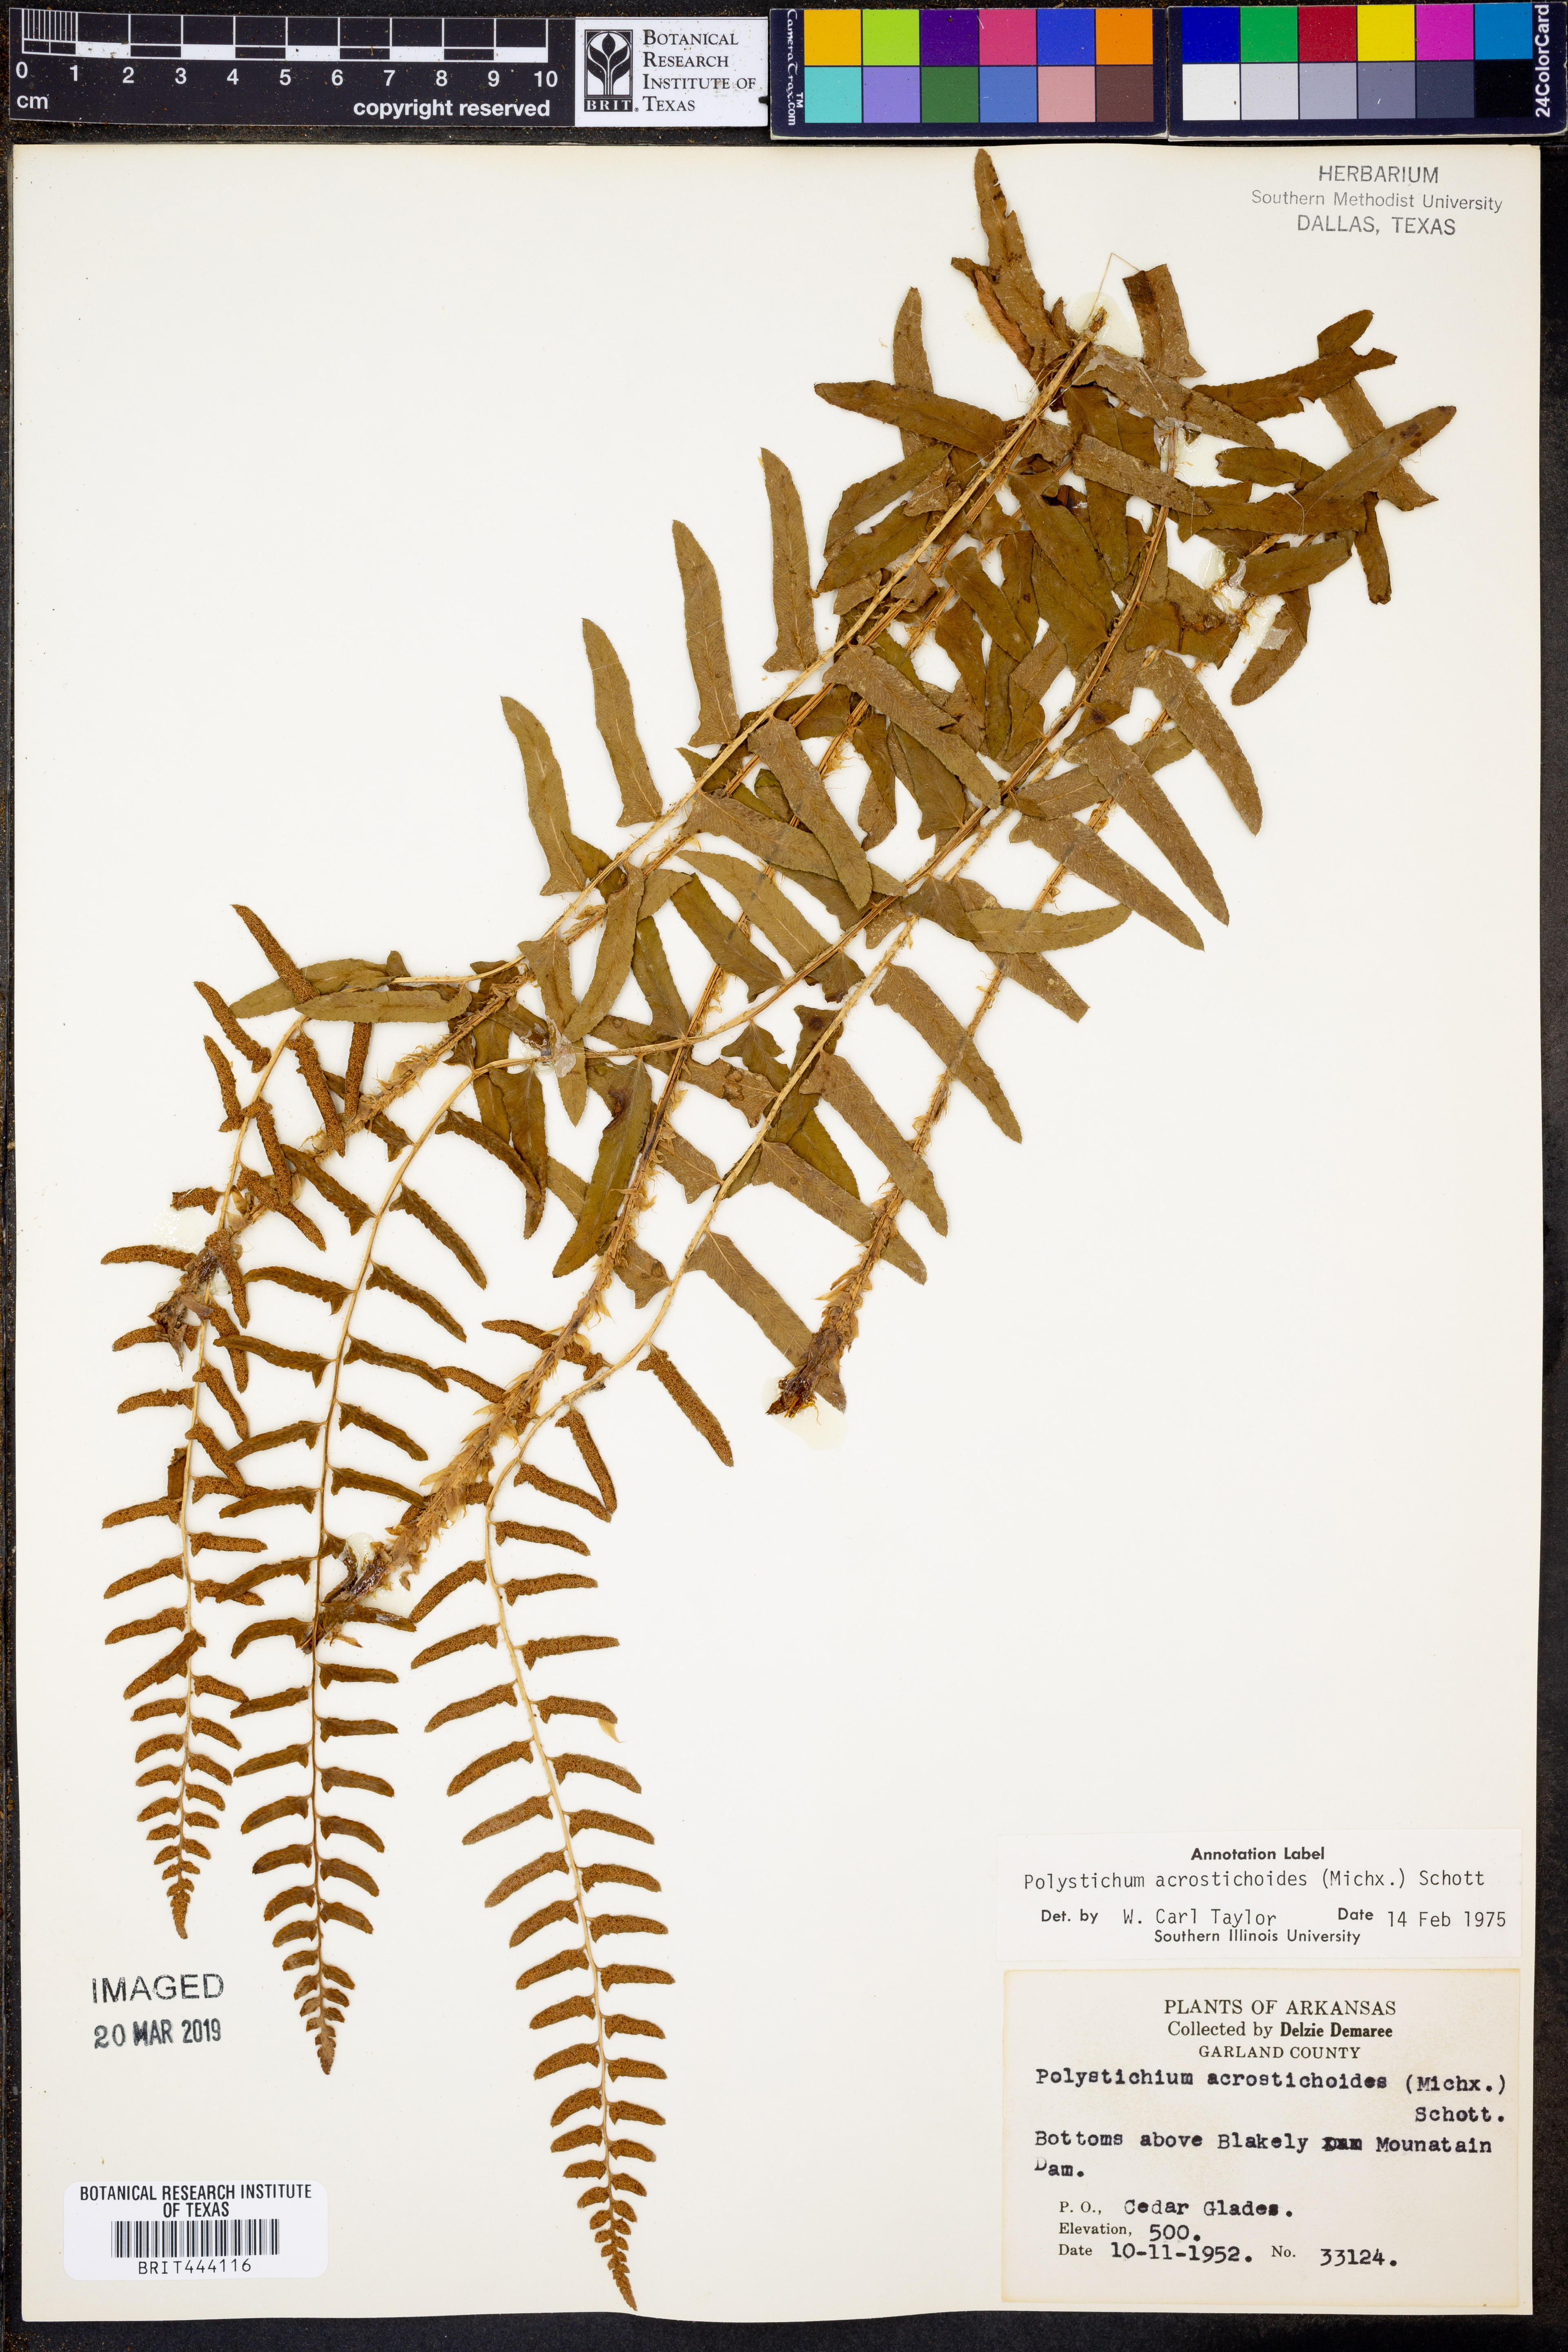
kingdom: Plantae
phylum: Tracheophyta
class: Polypodiopsida
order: Polypodiales
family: Dryopteridaceae
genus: Polystichum
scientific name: Polystichum acrostichoides
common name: Christmas fern
